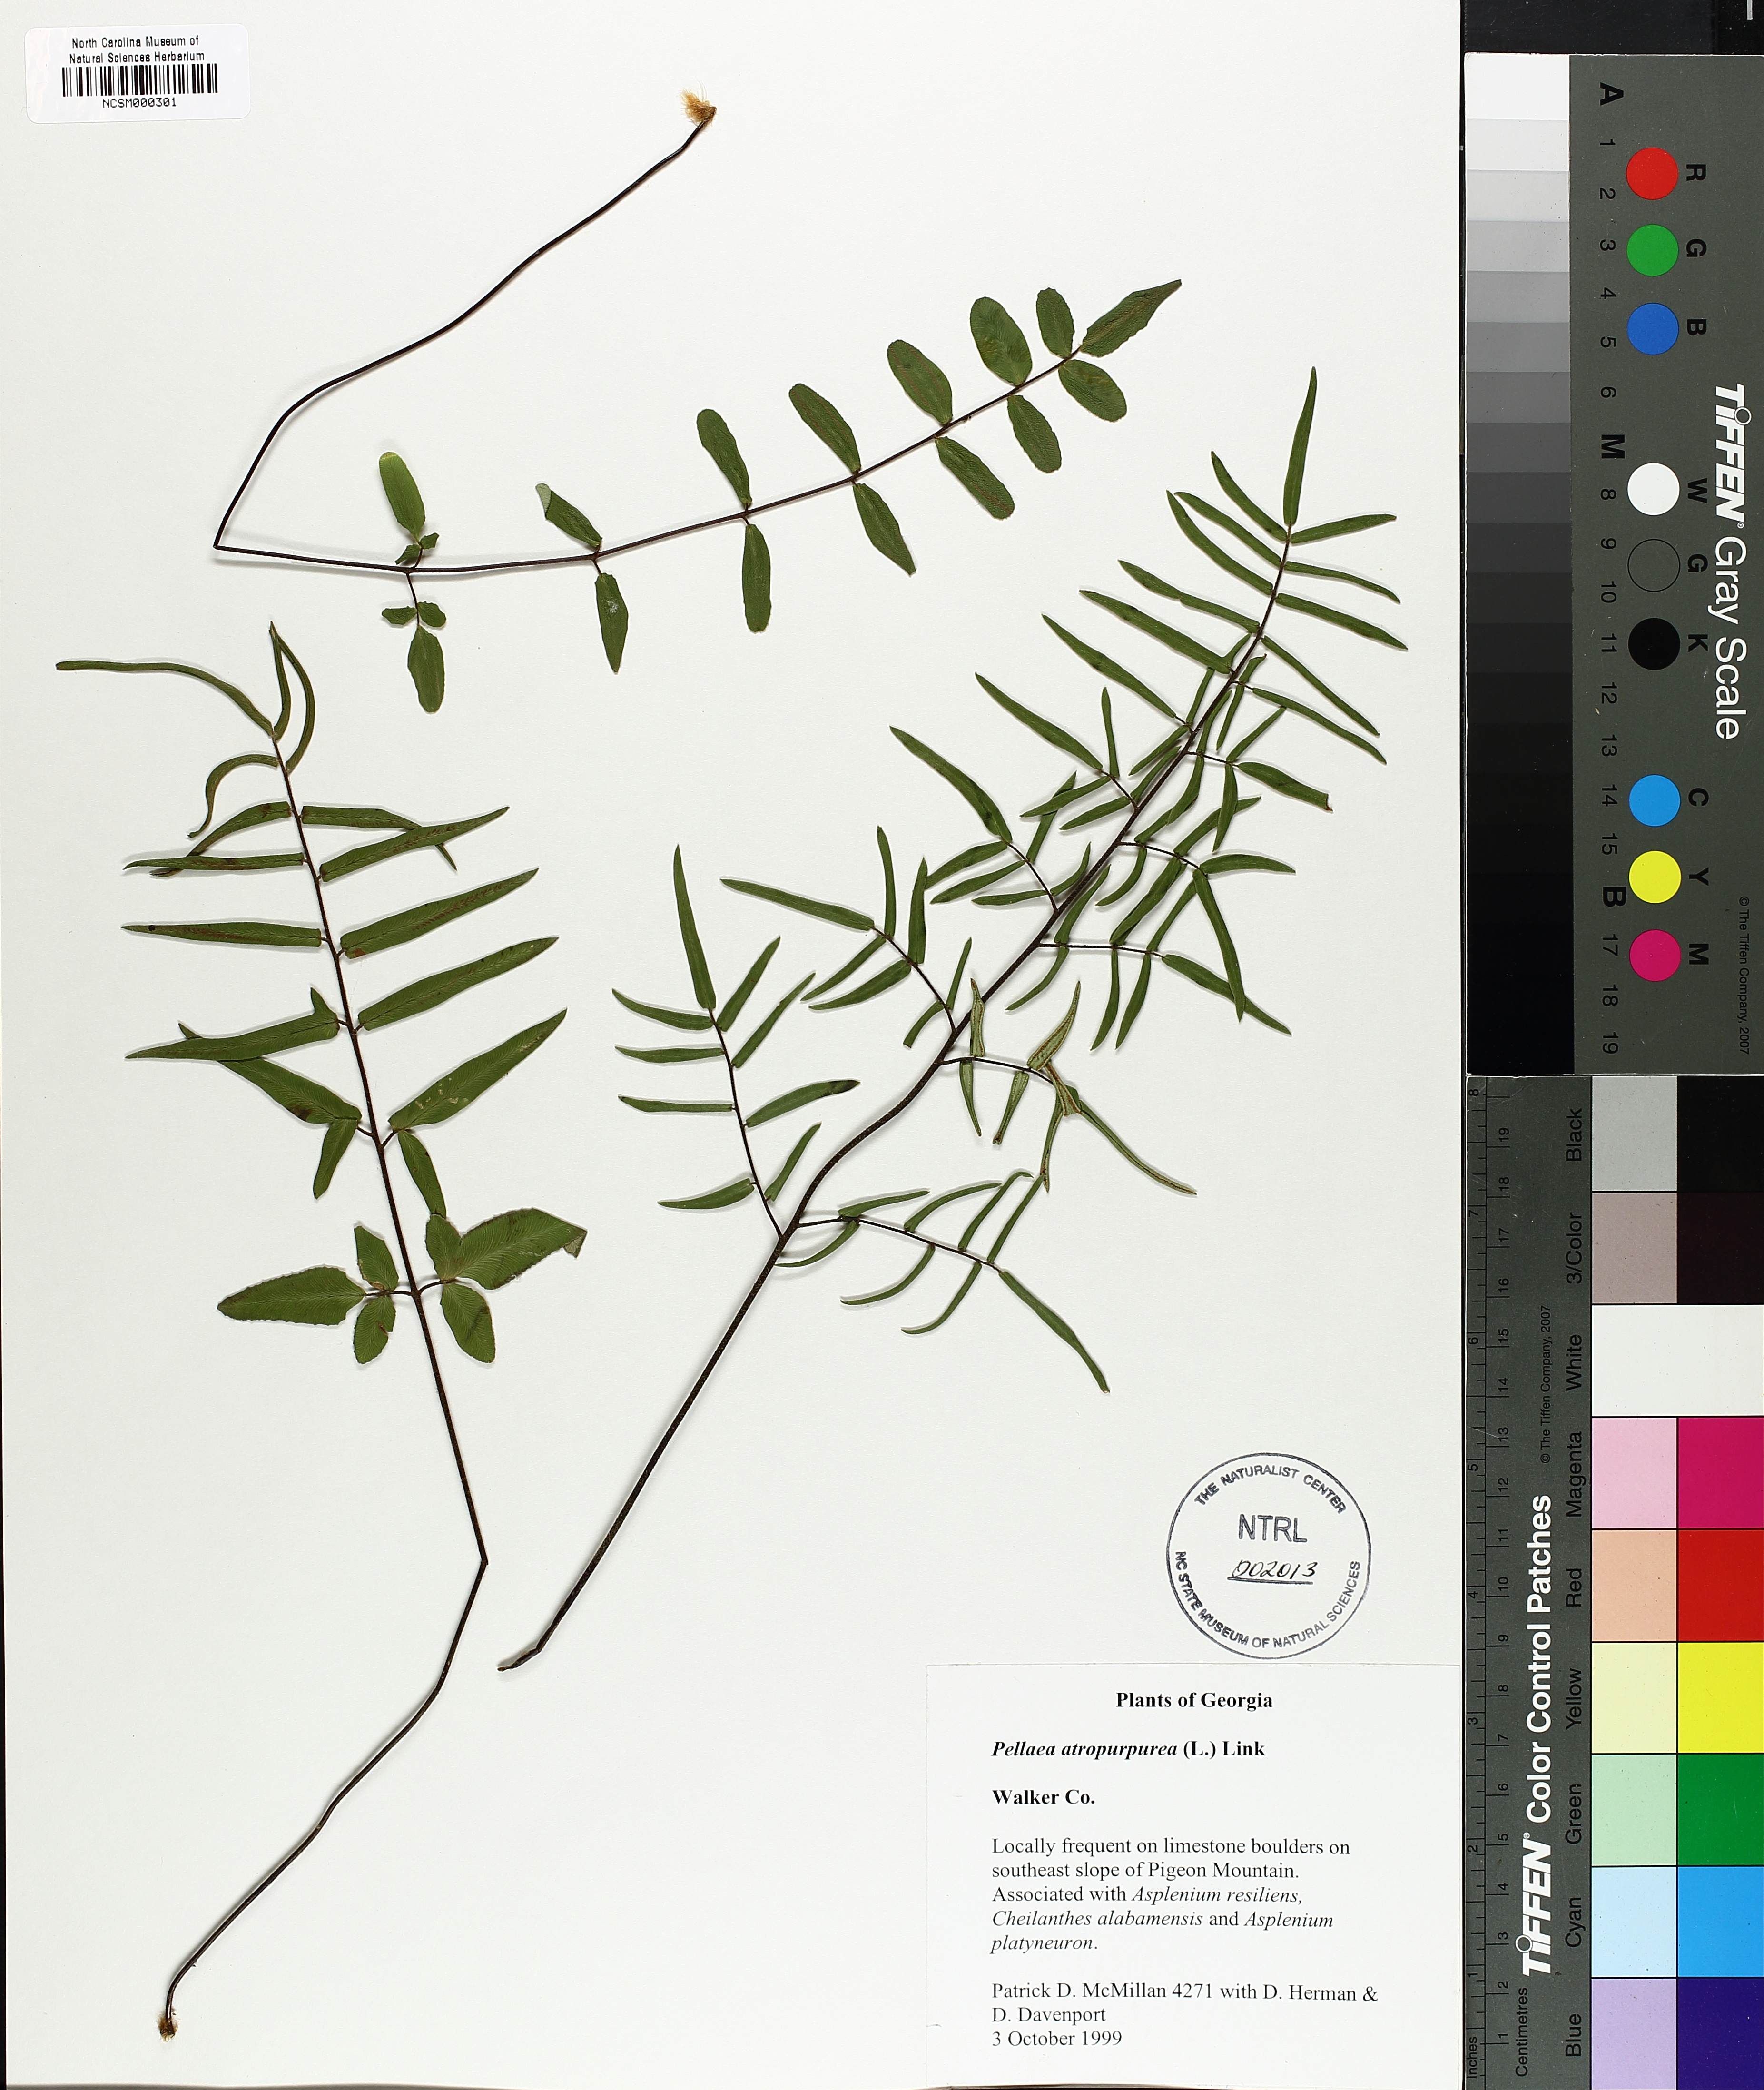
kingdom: Plantae
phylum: Tracheophyta
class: Polypodiopsida
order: Polypodiales
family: Pteridaceae
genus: Pellaea
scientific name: Pellaea atropurpurea
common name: Hairy cliffbrake
